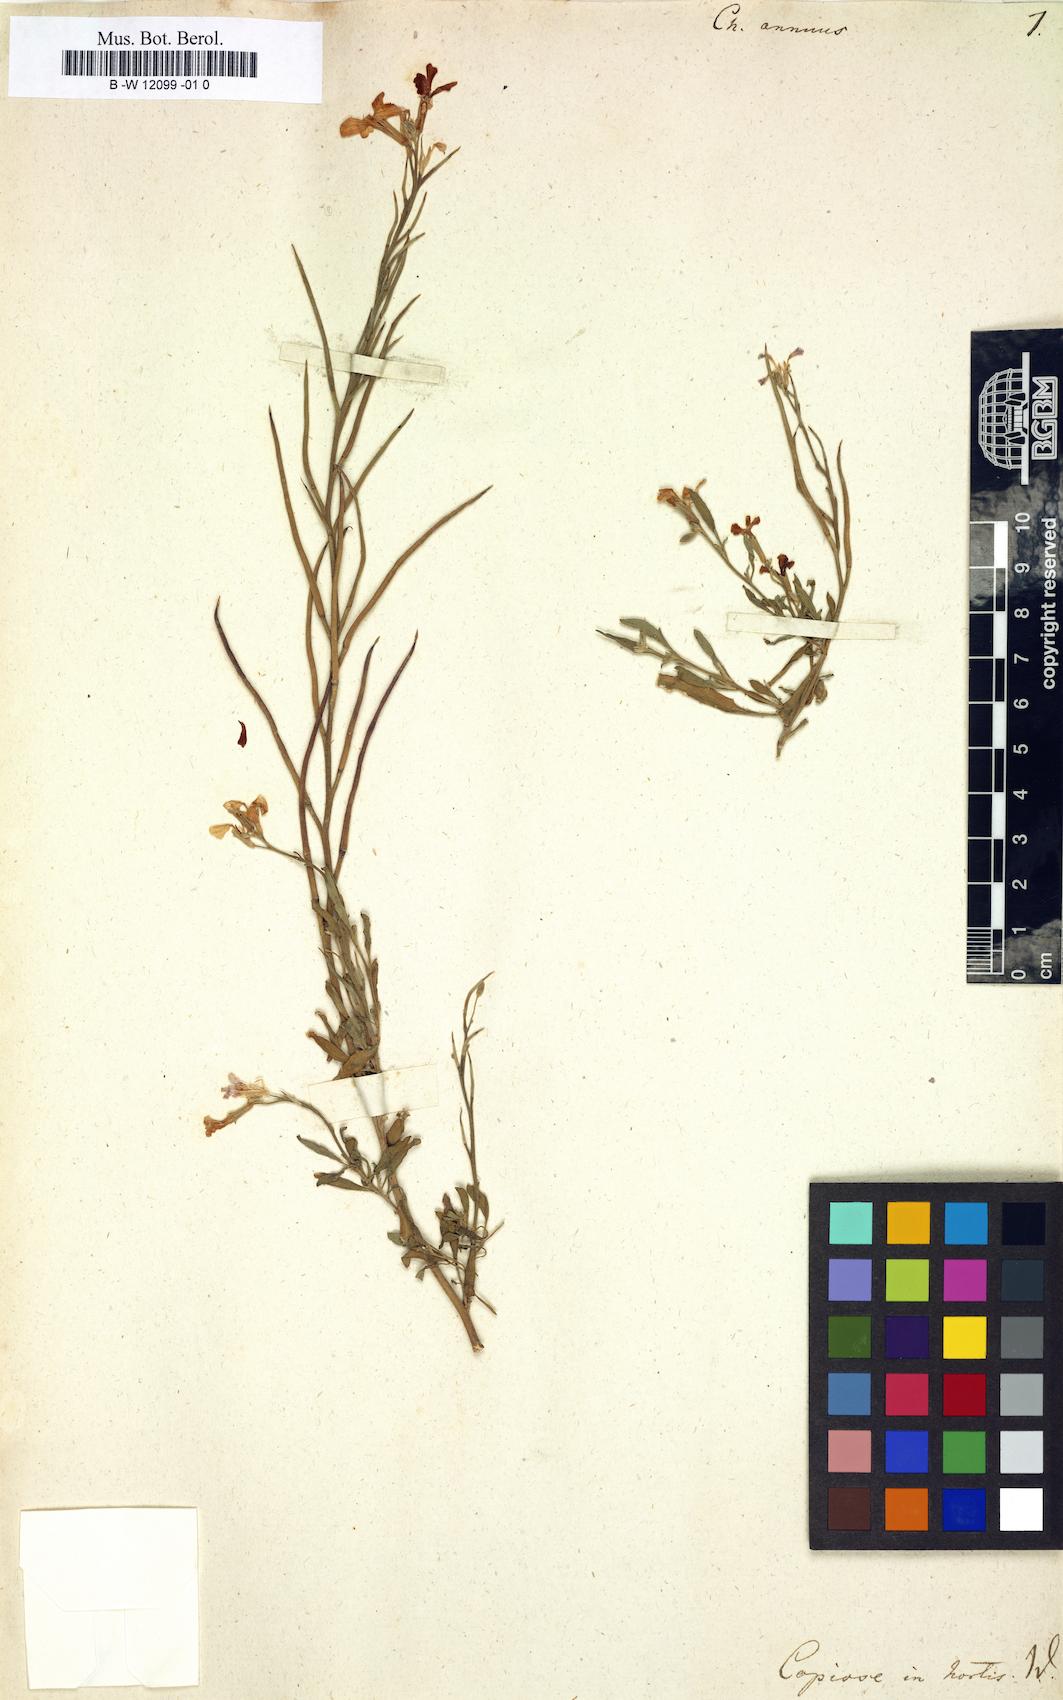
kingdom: Plantae
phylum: Tracheophyta
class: Magnoliopsida
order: Brassicales
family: Brassicaceae
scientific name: Brassicaceae
